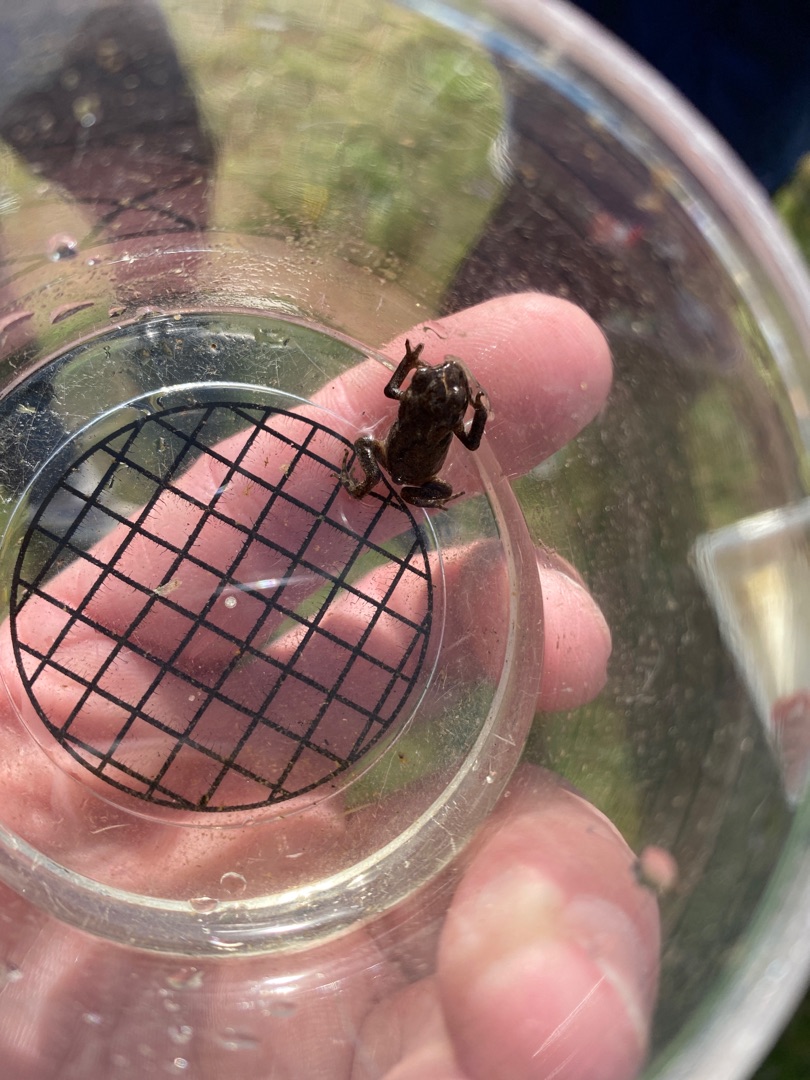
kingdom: Animalia
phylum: Chordata
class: Amphibia
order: Anura
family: Bufonidae
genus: Bufo
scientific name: Bufo bufo
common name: Skrubtudse
